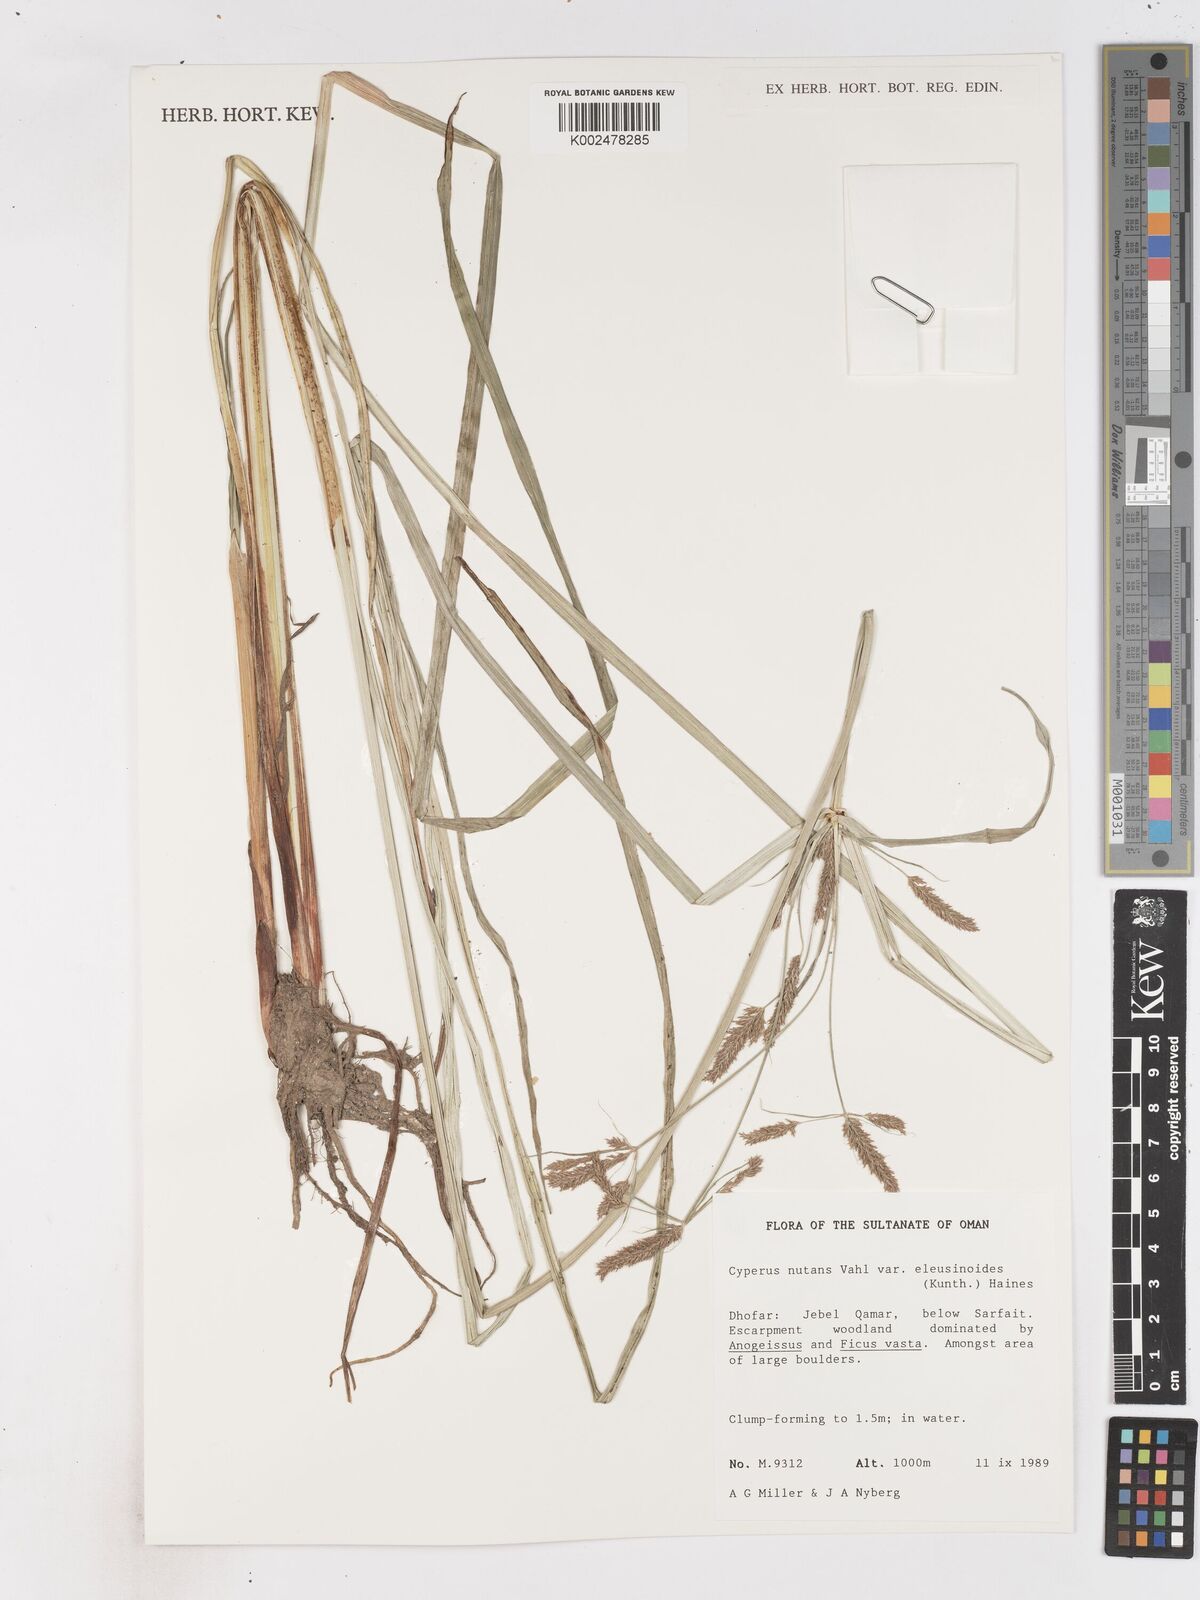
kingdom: Plantae
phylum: Tracheophyta
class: Liliopsida
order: Poales
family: Cyperaceae
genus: Cyperus
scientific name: Cyperus nutans
